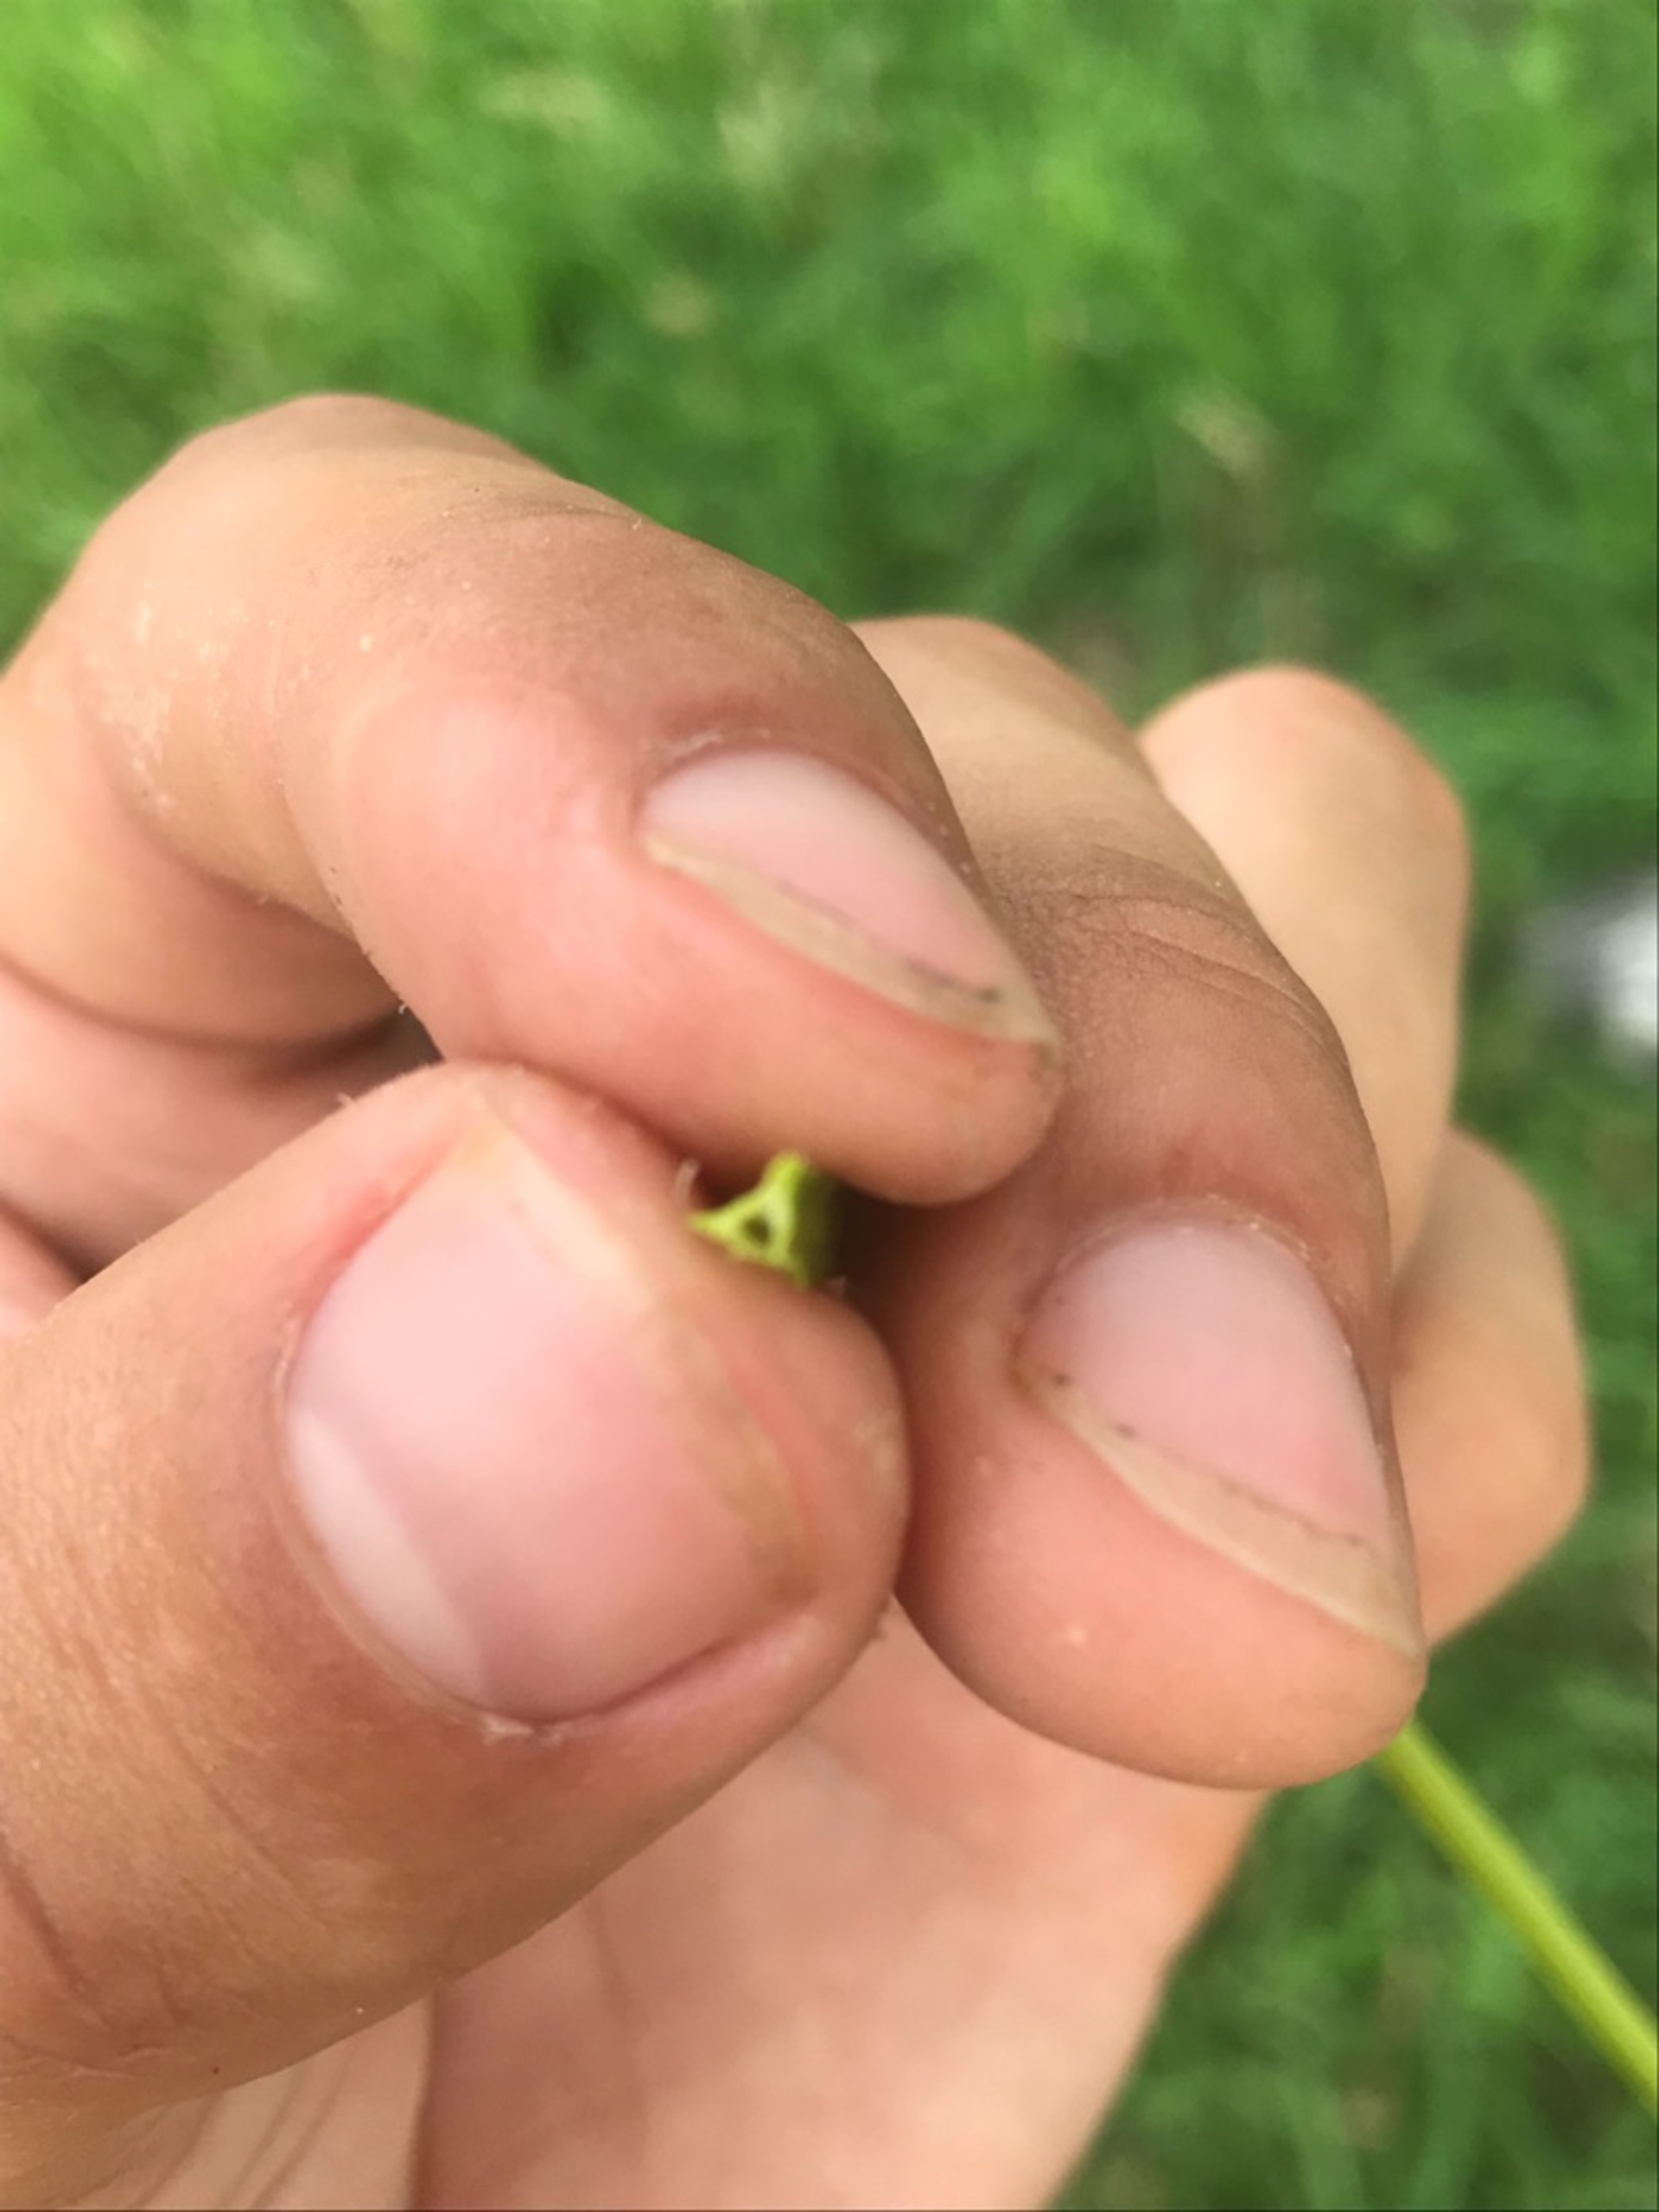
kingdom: Plantae
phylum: Tracheophyta
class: Liliopsida
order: Poales
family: Cyperaceae
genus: Carex
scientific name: Carex otrubae
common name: Sylt-star
